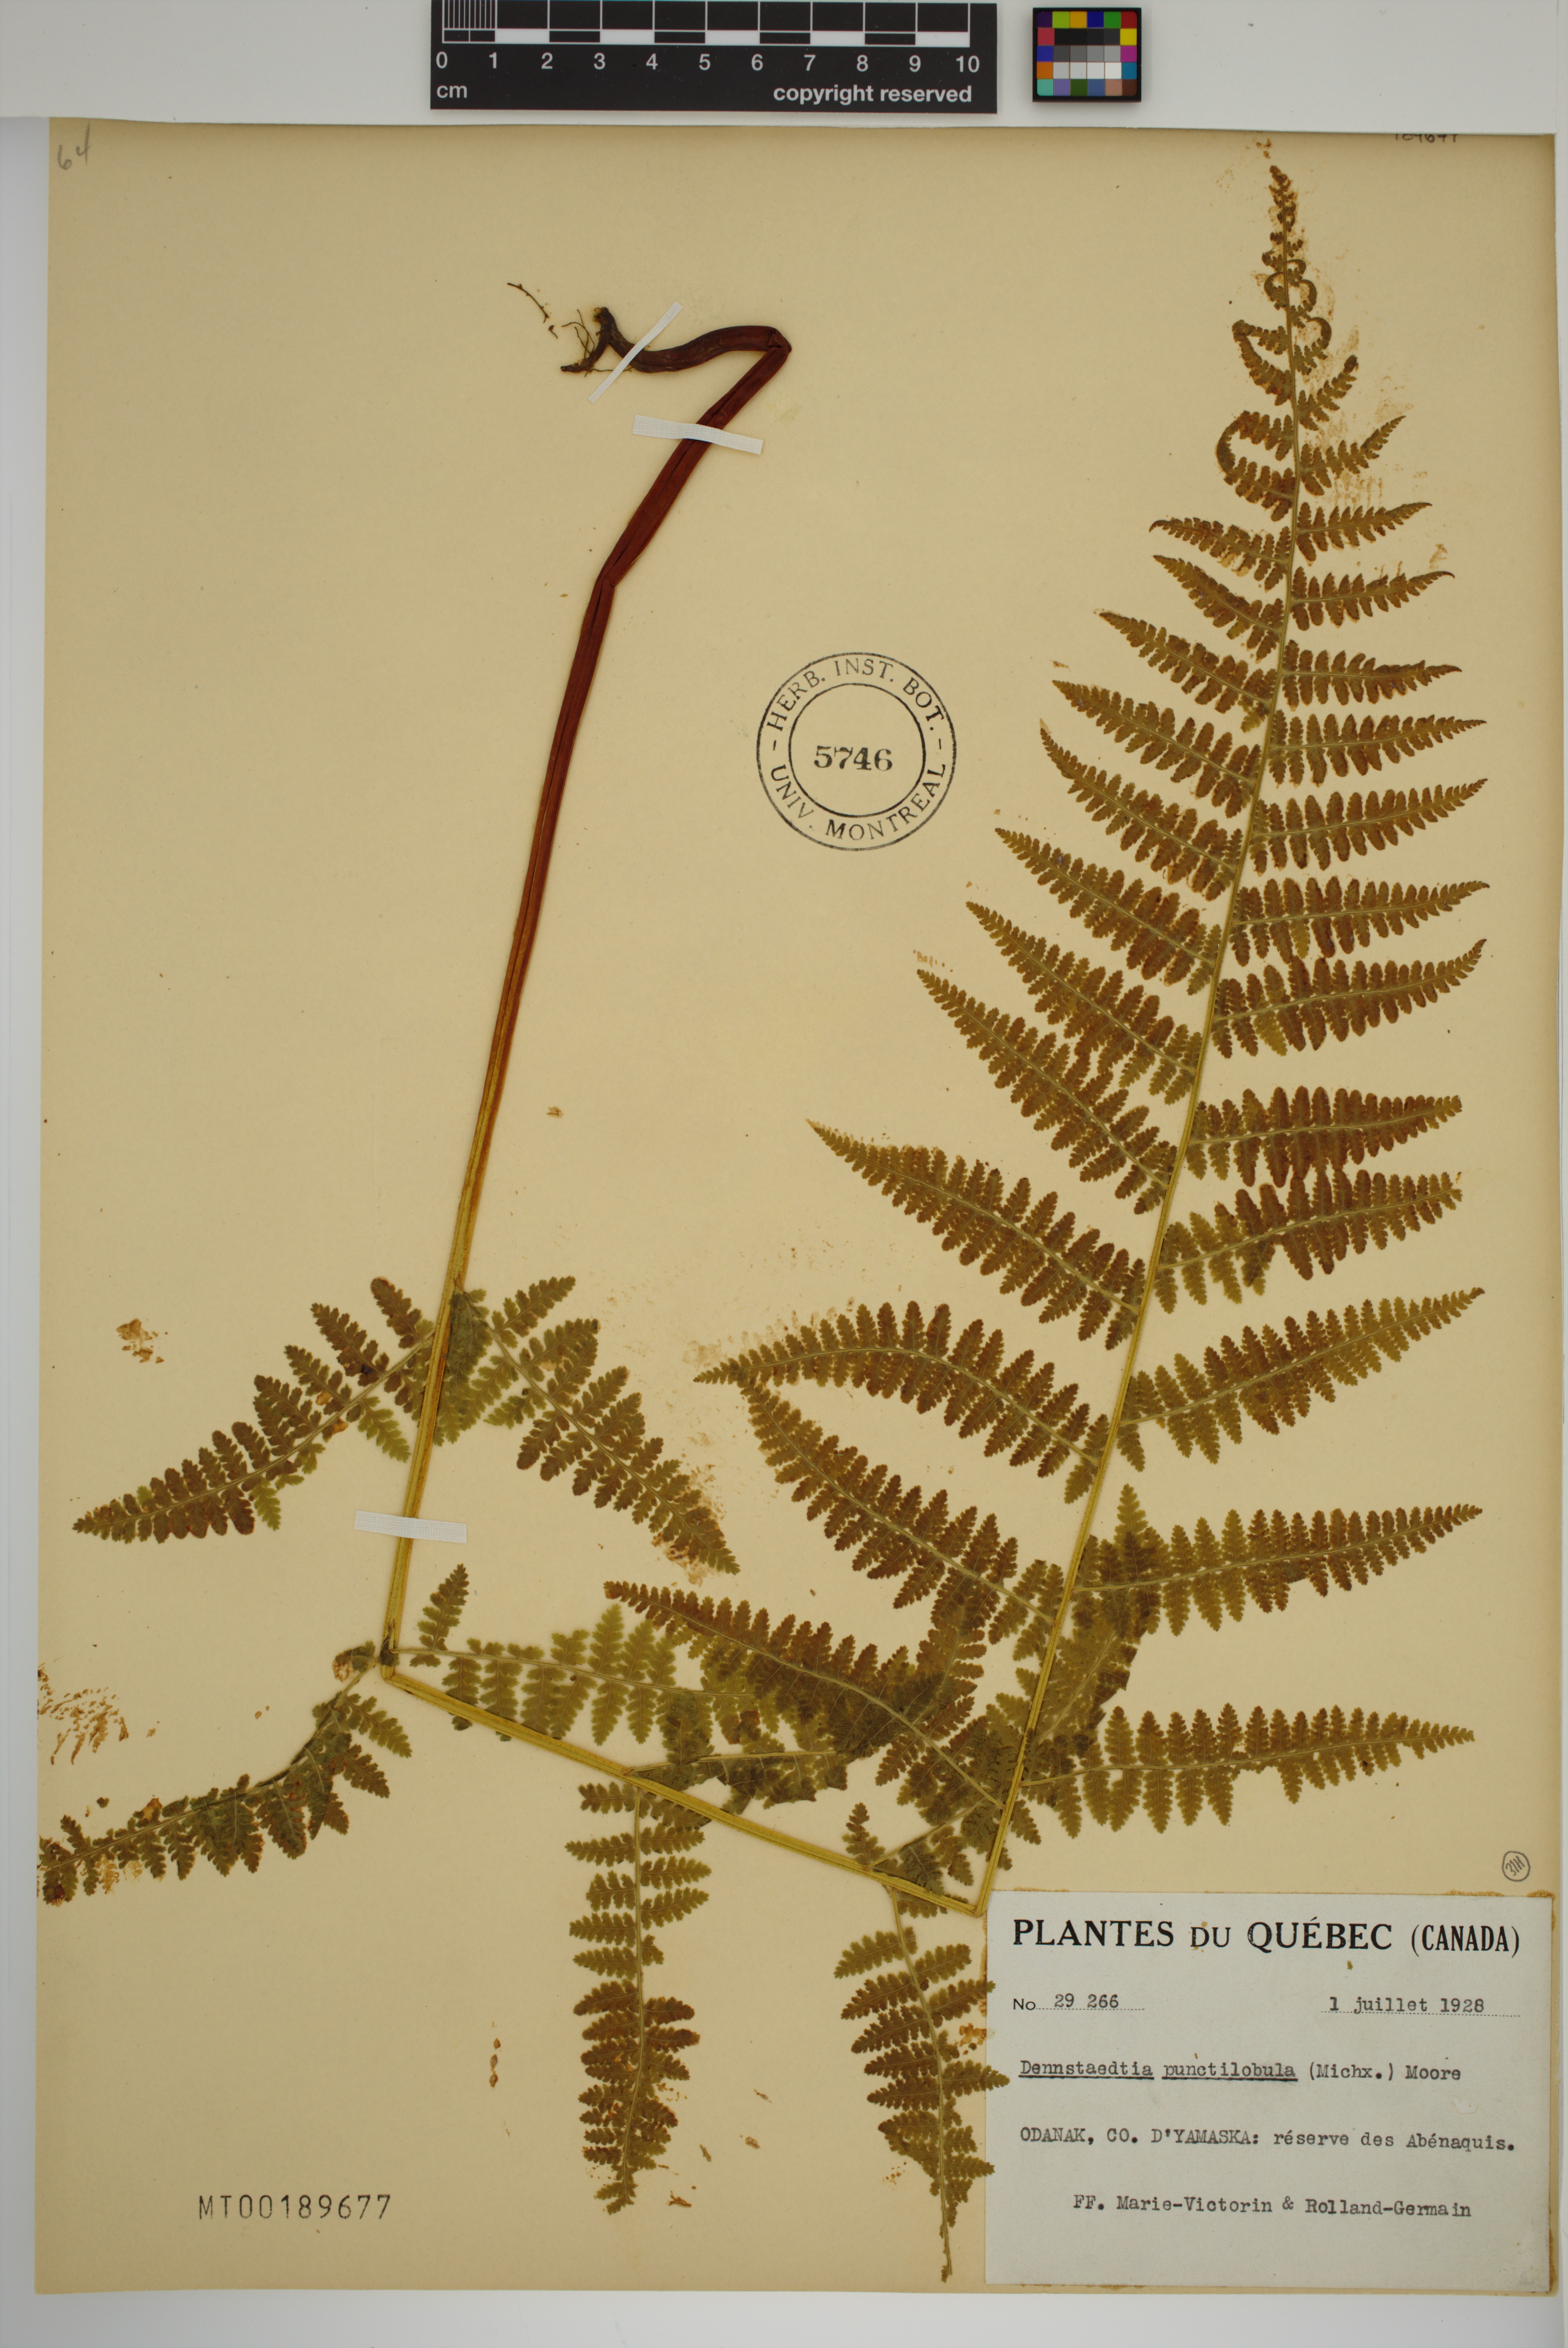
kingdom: Plantae
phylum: Tracheophyta
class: Polypodiopsida
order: Polypodiales
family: Dennstaedtiaceae
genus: Sitobolium
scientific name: Sitobolium punctilobum
